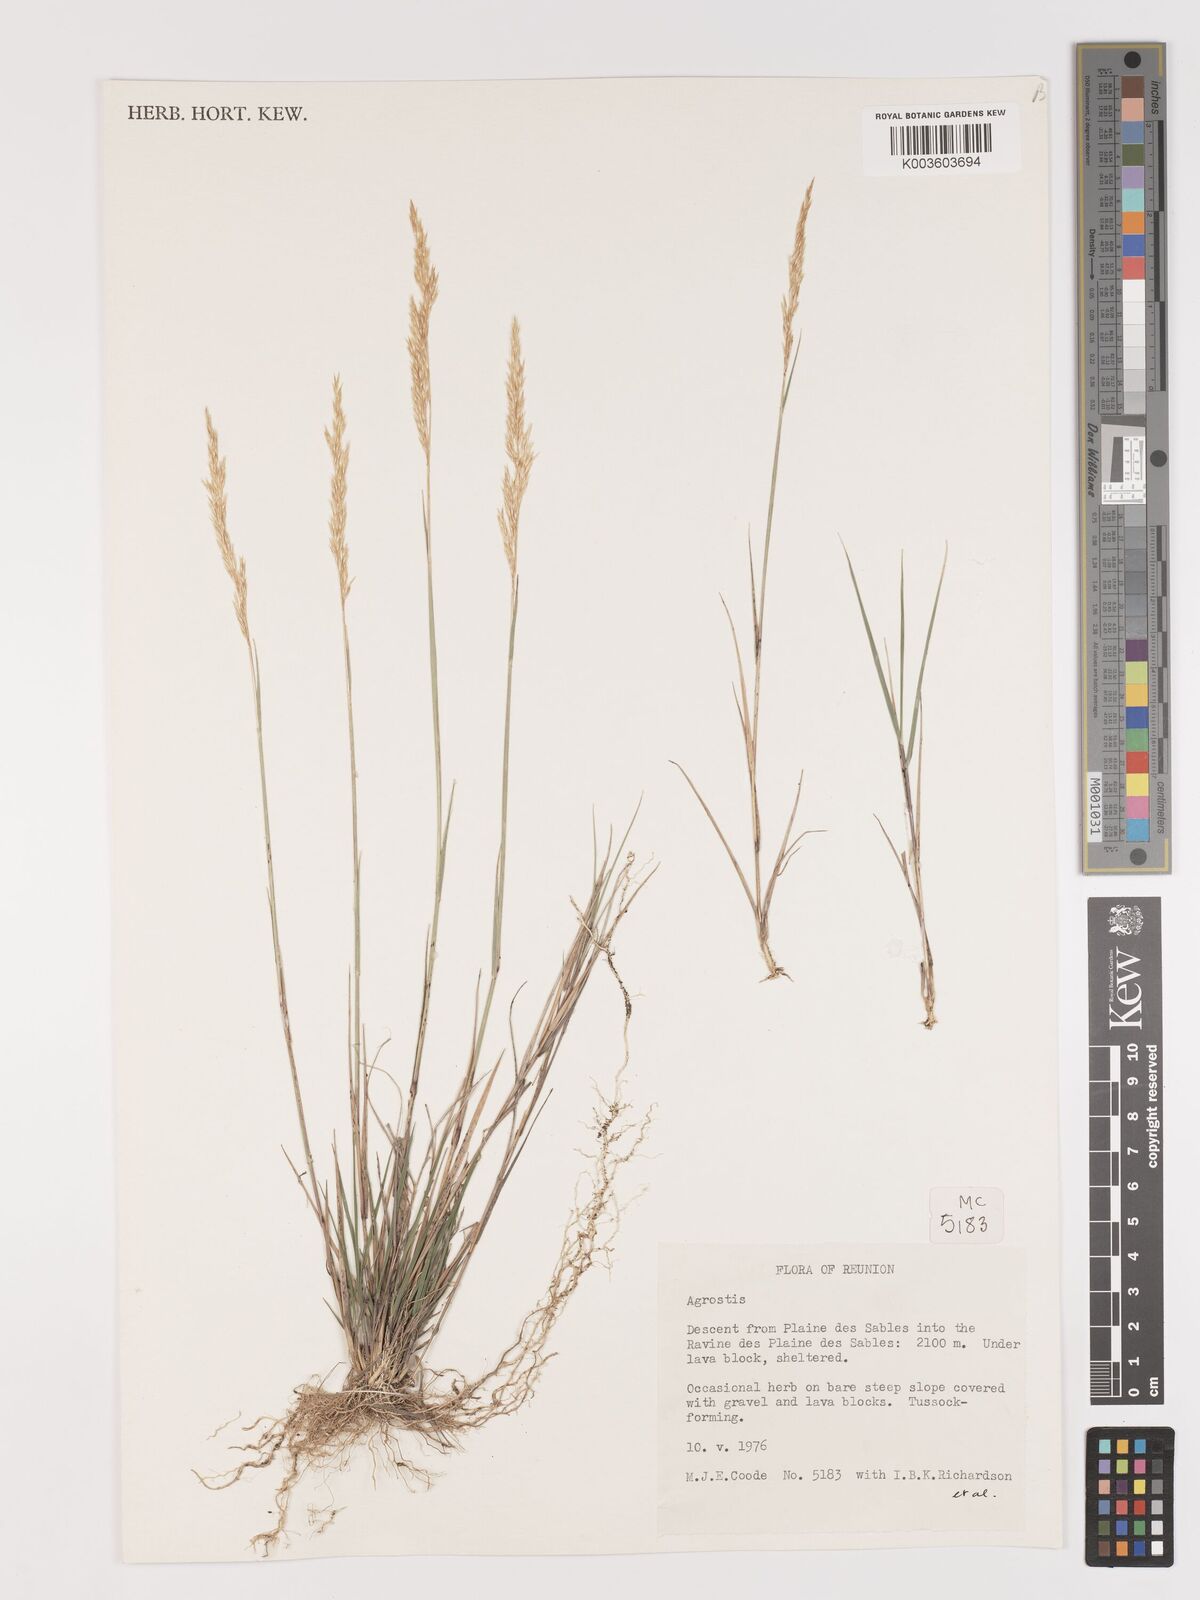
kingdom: Plantae
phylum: Tracheophyta
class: Liliopsida
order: Poales
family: Poaceae
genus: Agrostis
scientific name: Agrostis salaziensis
